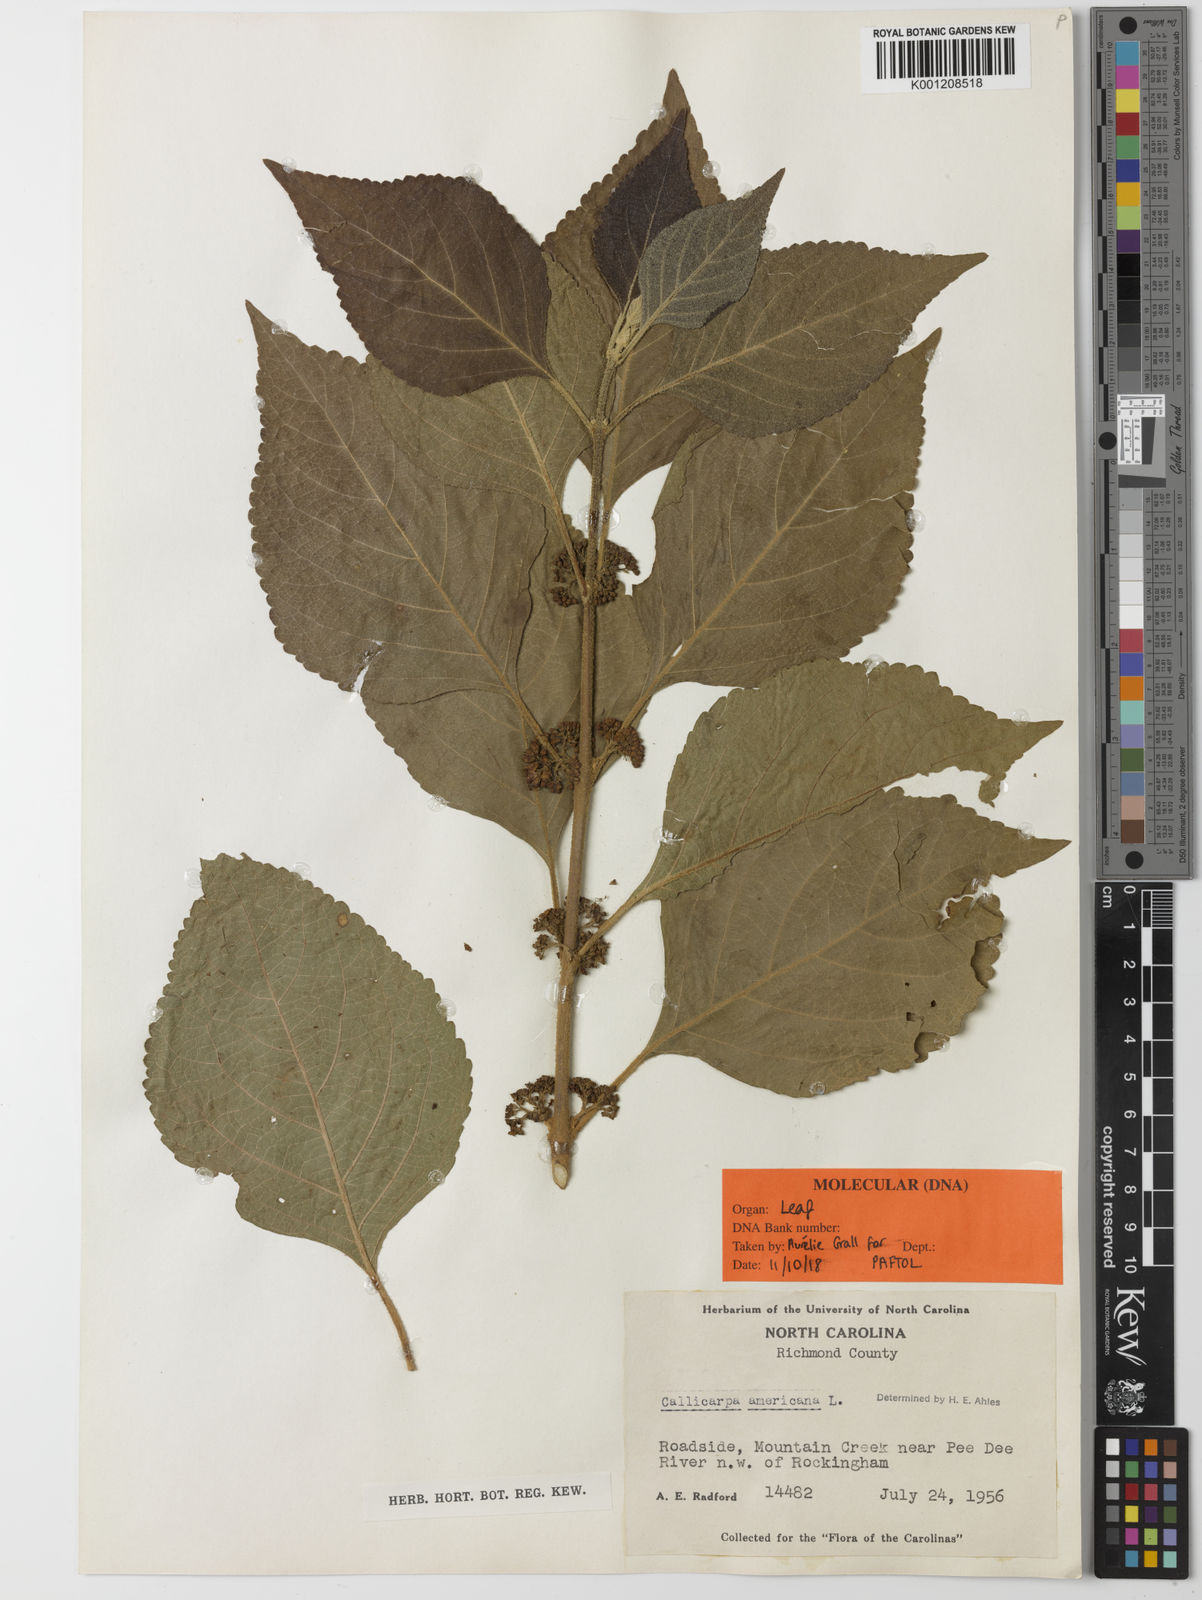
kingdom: Plantae
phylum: Tracheophyta
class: Magnoliopsida
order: Lamiales
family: Lamiaceae
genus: Callicarpa
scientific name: Callicarpa americana
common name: American beautyberry
